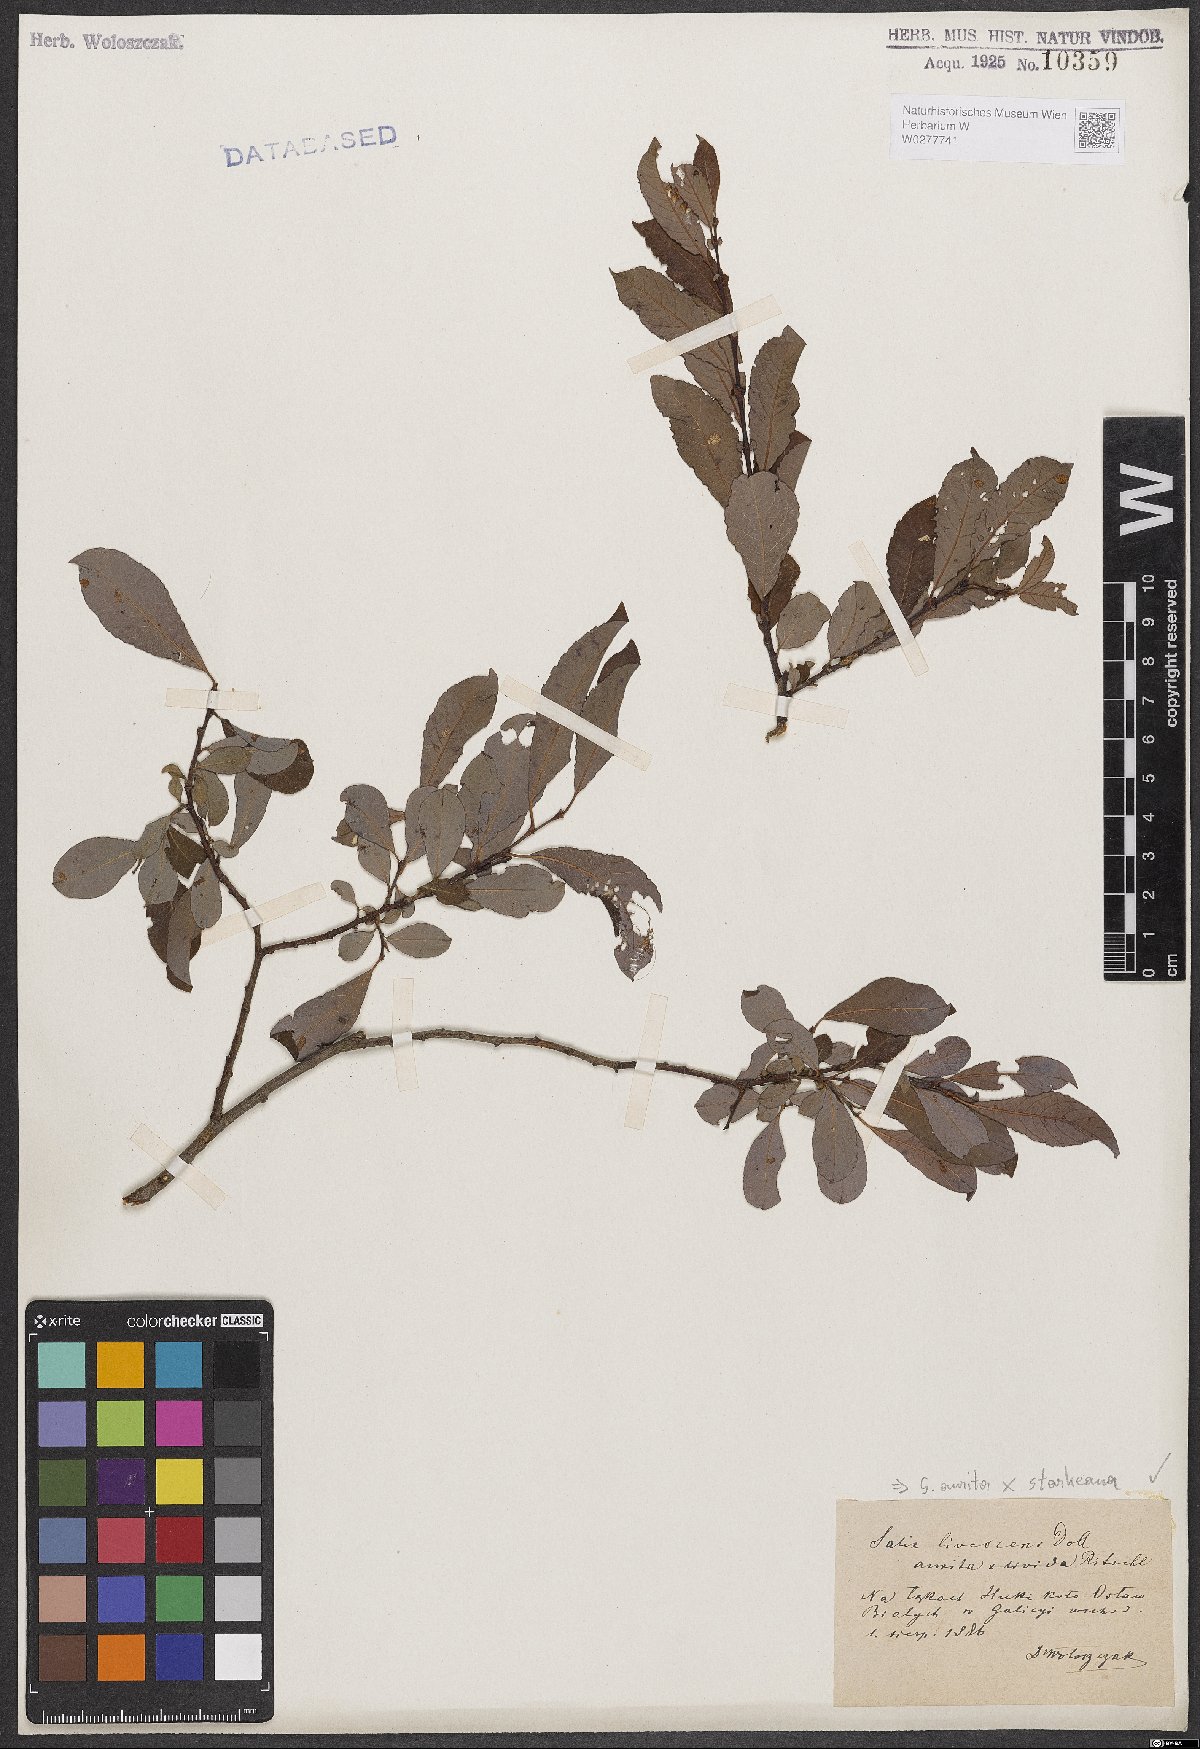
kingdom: Plantae
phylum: Tracheophyta
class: Magnoliopsida
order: Malpighiales
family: Salicaceae
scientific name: Salicaceae
